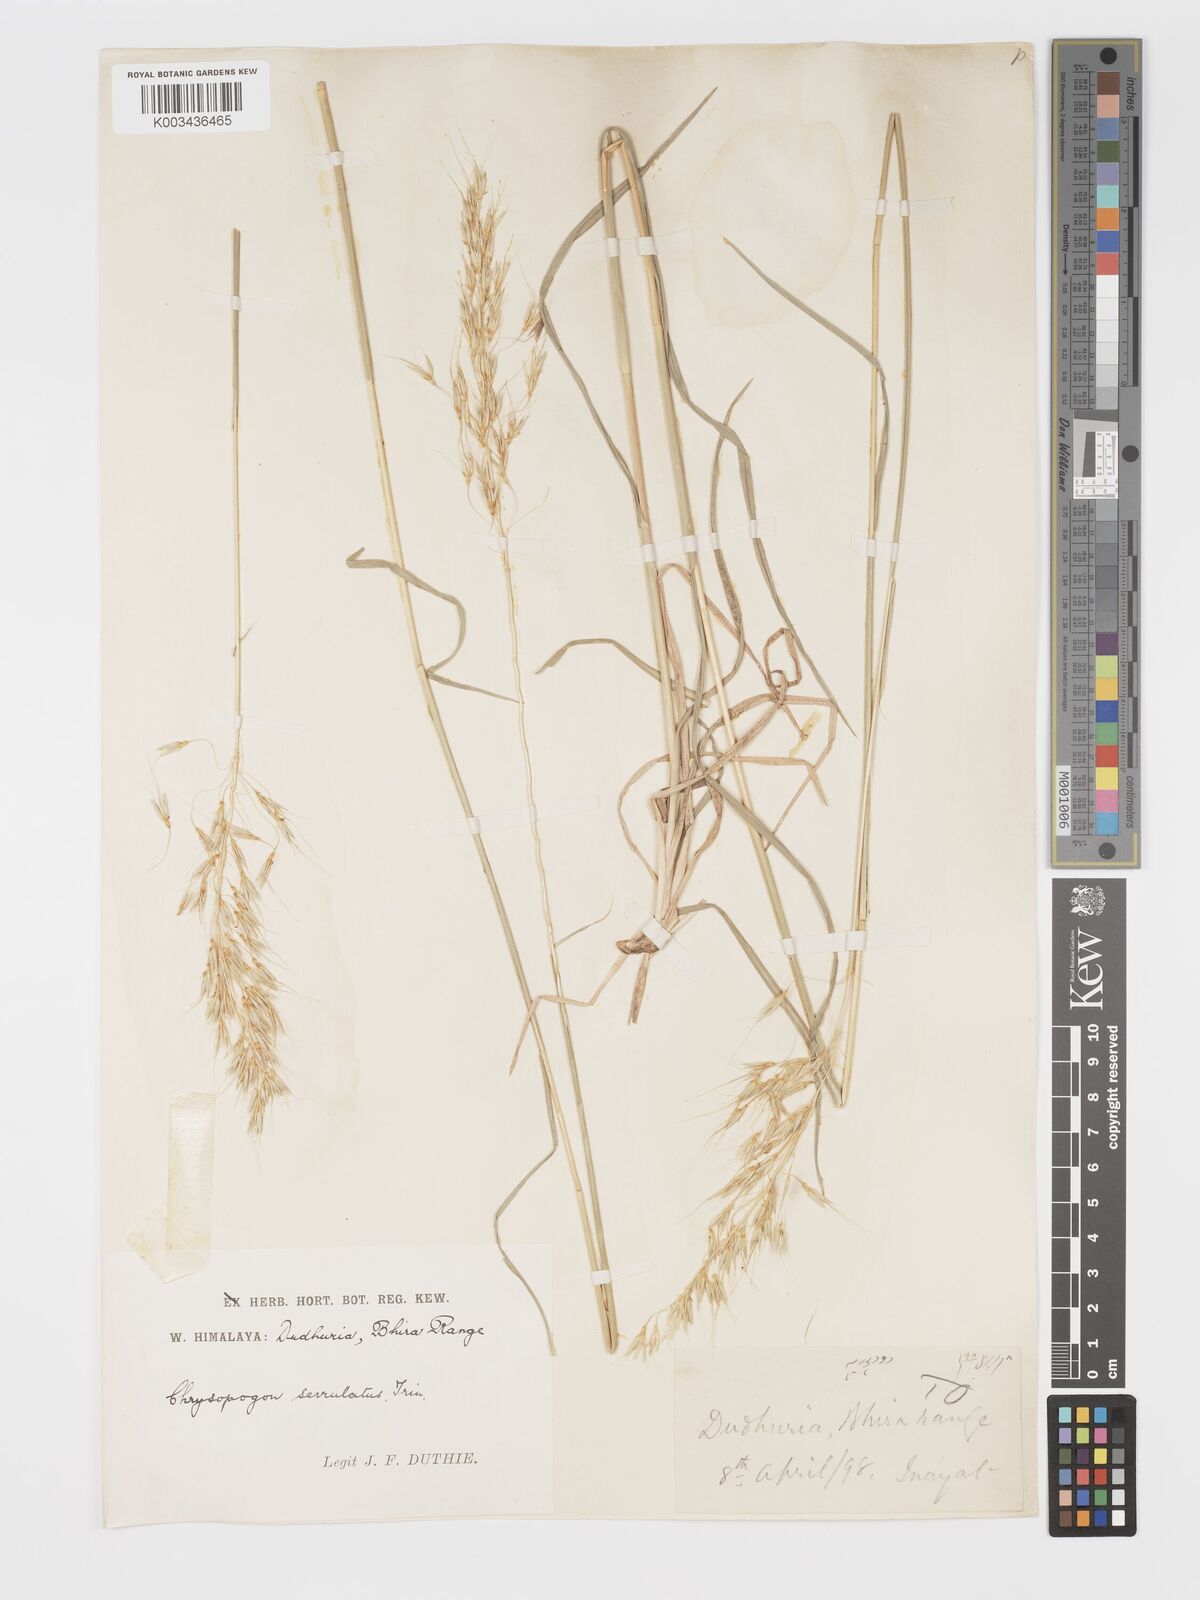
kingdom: Plantae
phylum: Tracheophyta
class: Liliopsida
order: Poales
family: Poaceae
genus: Chrysopogon
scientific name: Chrysopogon aucheri
